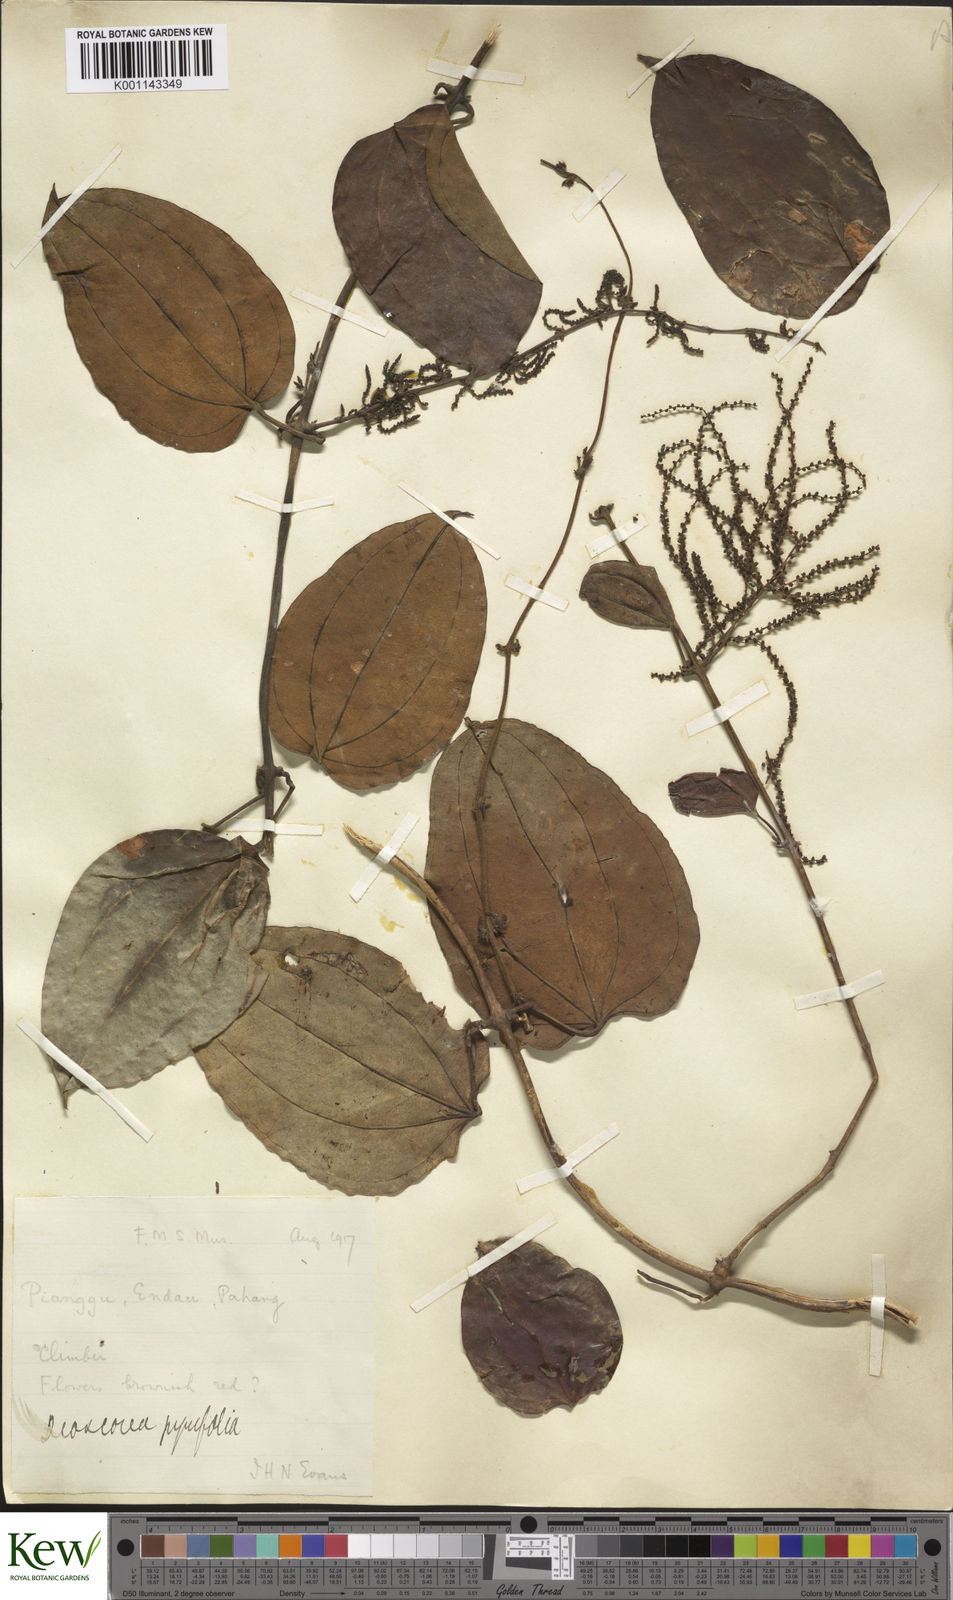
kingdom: Plantae
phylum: Tracheophyta
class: Liliopsida
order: Dioscoreales
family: Dioscoreaceae
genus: Dioscorea
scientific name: Dioscorea pyrifolia
